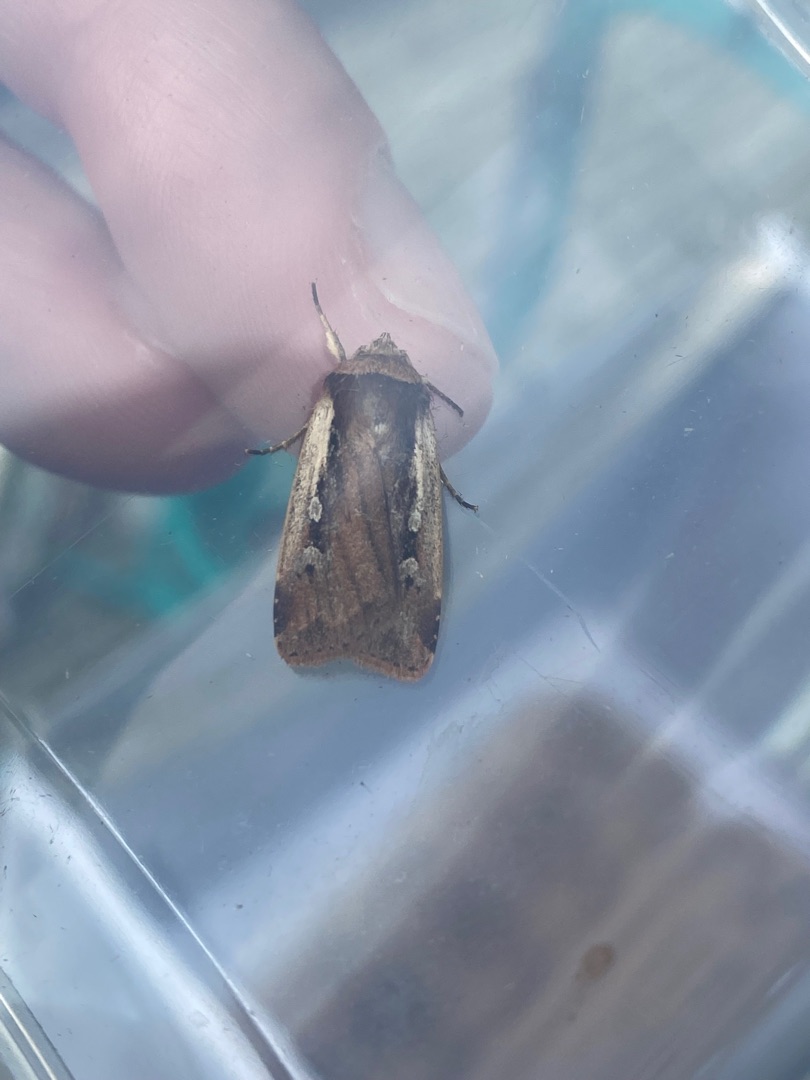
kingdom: Animalia
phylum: Arthropoda
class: Insecta
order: Lepidoptera
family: Noctuidae
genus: Ochropleura
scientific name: Ochropleura plecta
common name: Hvidrandet jordugle
